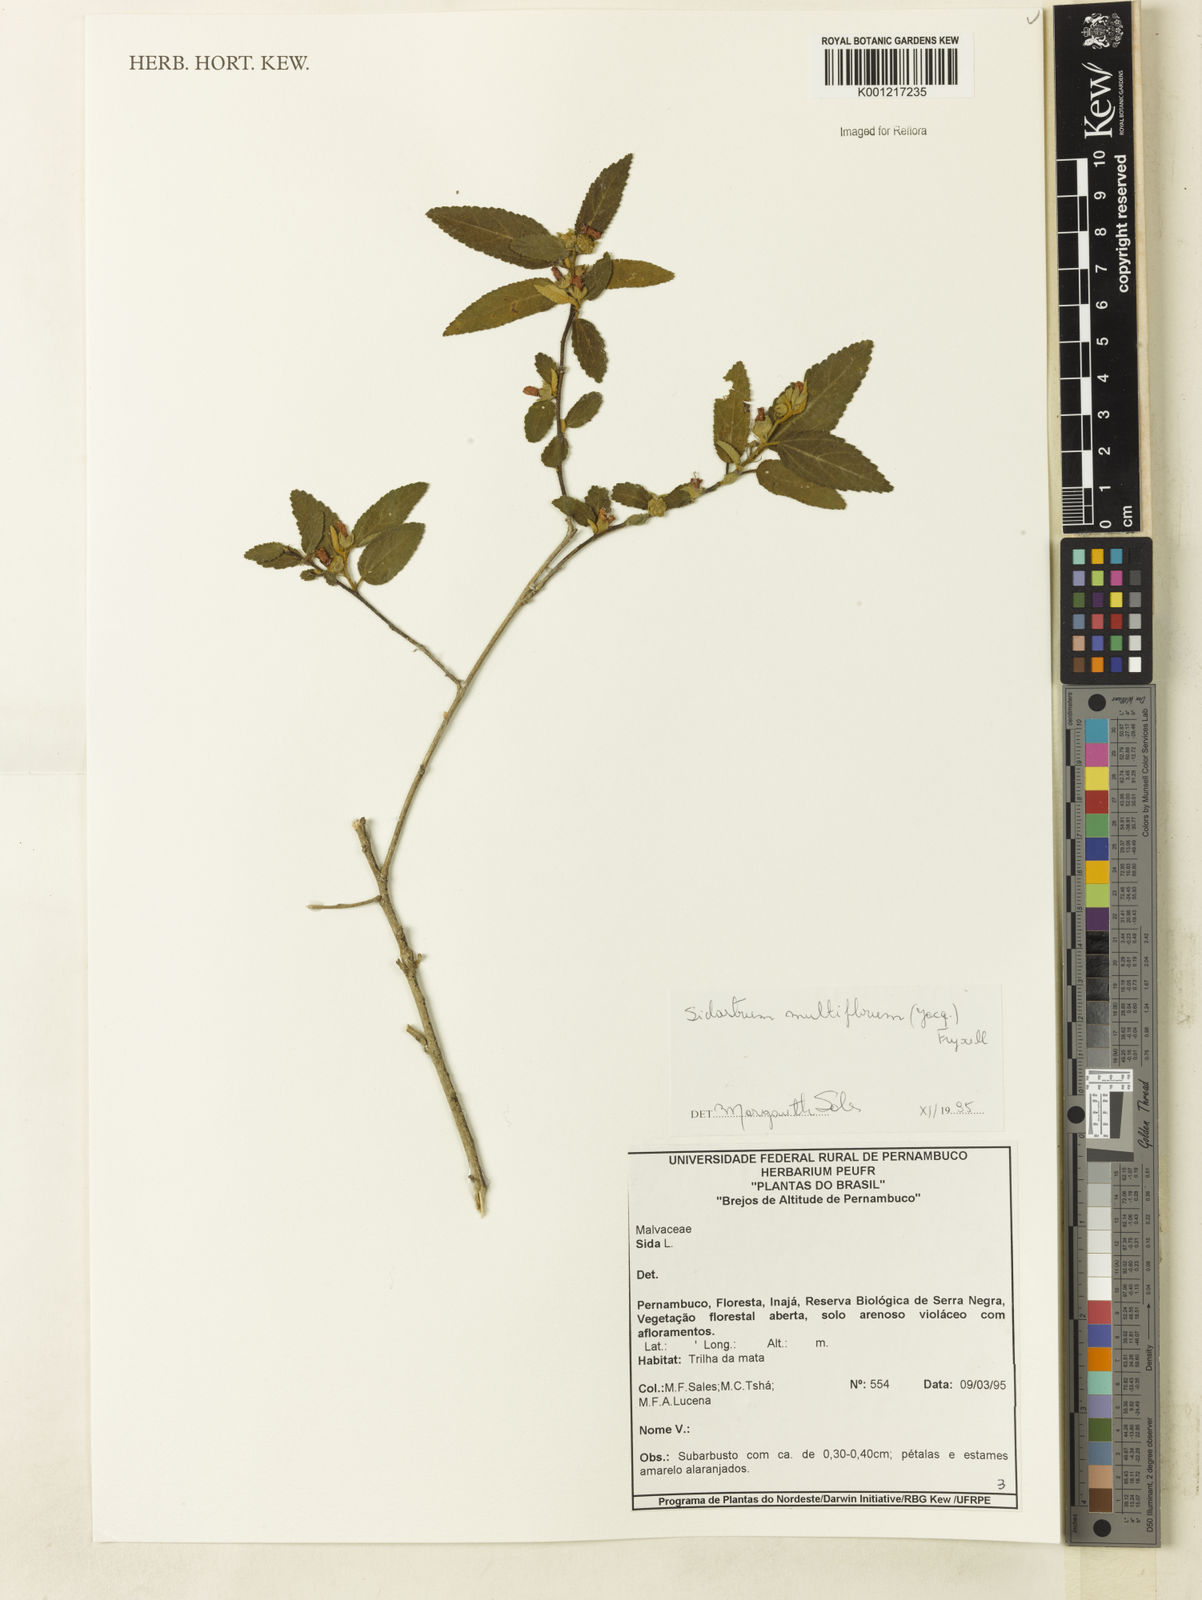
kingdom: Plantae
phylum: Tracheophyta
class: Magnoliopsida
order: Malvales
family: Malvaceae
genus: Sidastrum
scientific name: Sidastrum multiflorum
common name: Manyflower sandmallow
